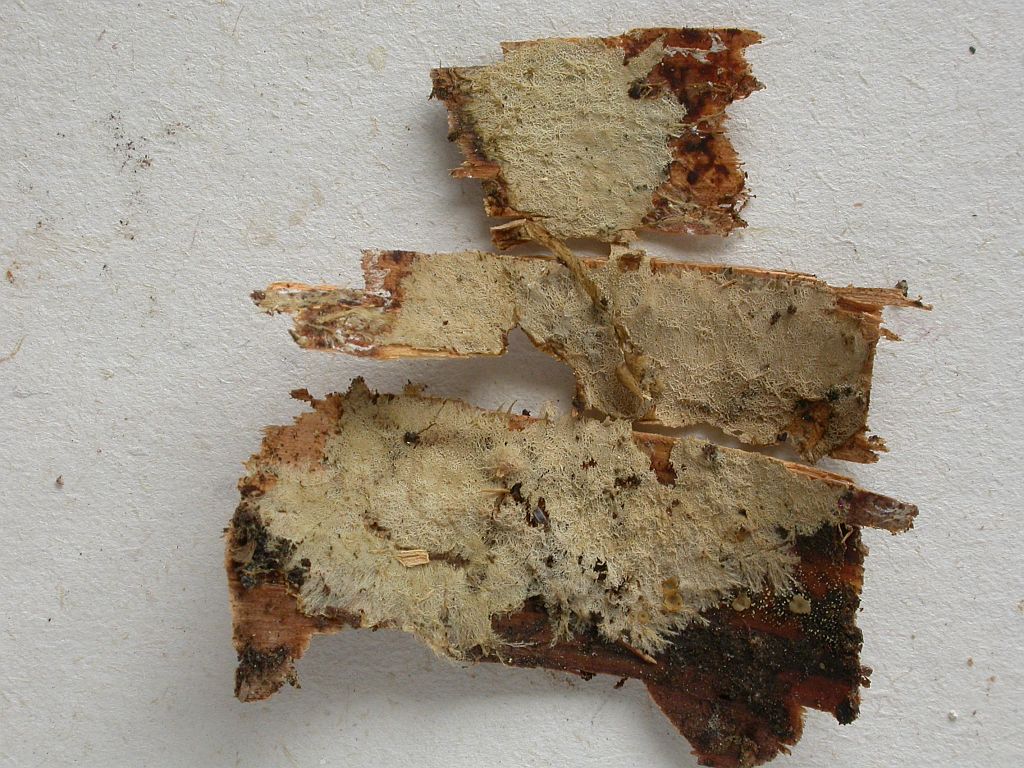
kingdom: Fungi
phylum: Basidiomycota
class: Agaricomycetes
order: Russulales
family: Xenasmataceae
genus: Xenasmatella
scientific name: Xenasmatella vaga
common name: svovl-strenghinde
